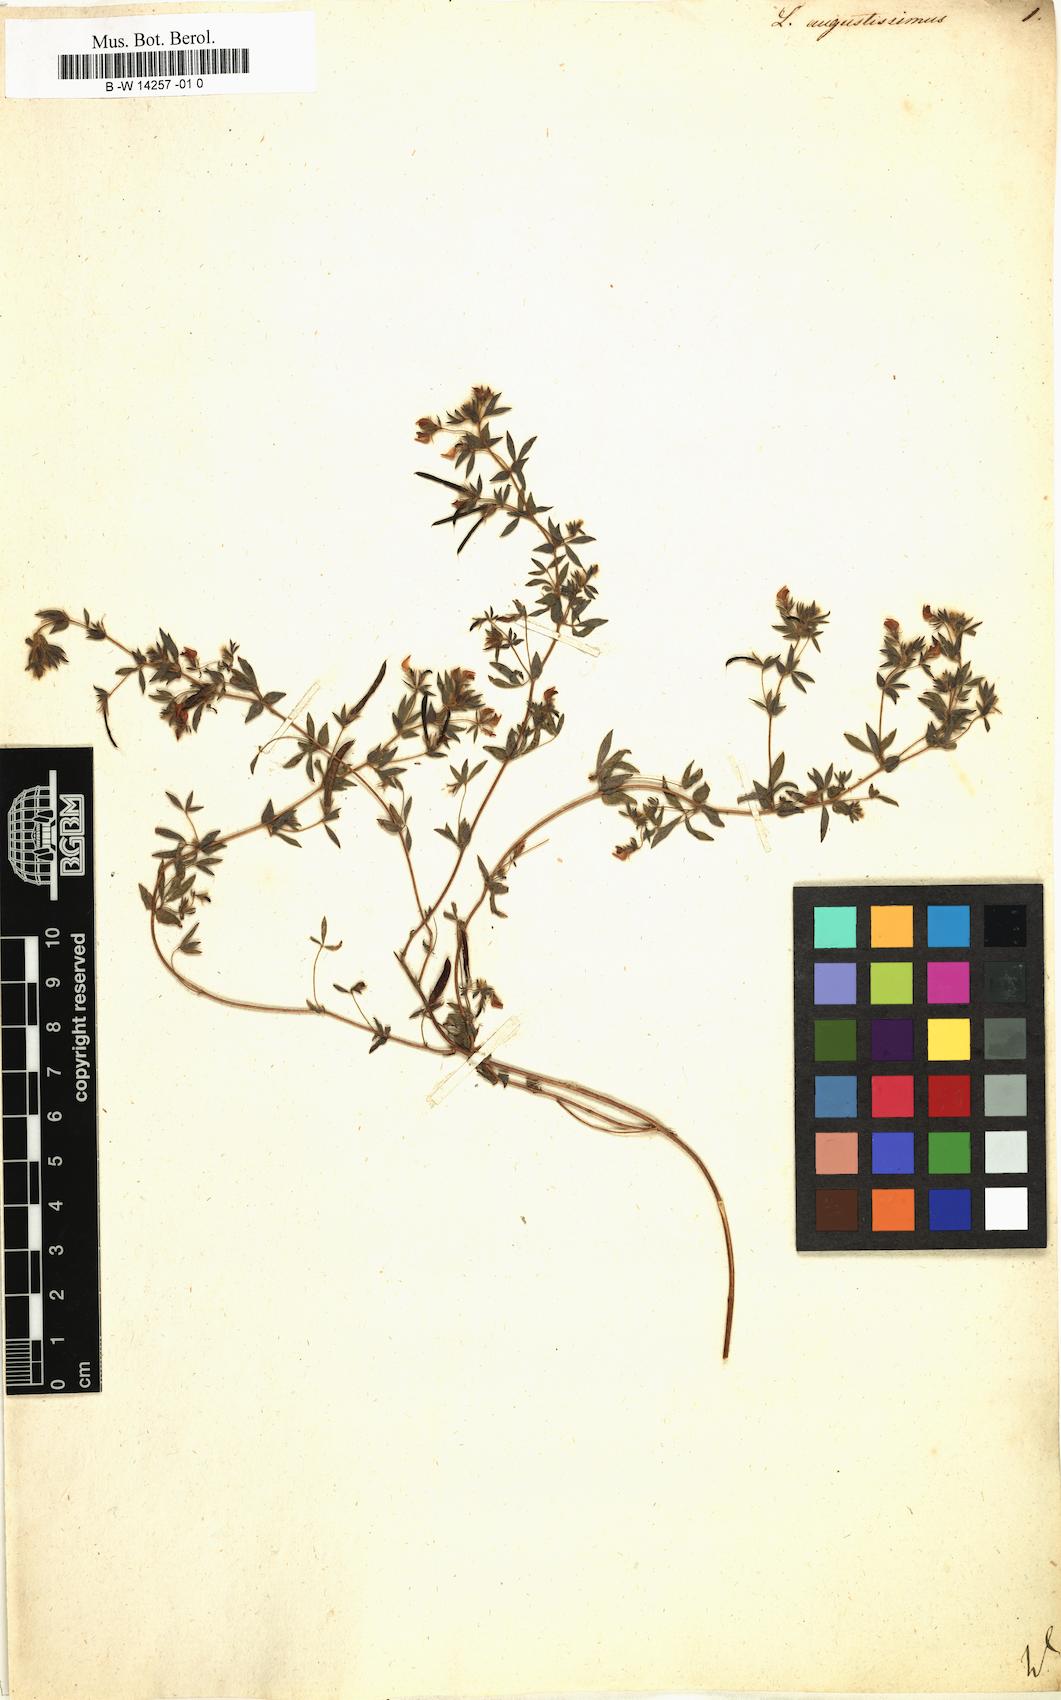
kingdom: Plantae
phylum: Tracheophyta
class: Magnoliopsida
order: Fabales
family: Fabaceae
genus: Lotus
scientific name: Lotus angustissimus
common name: Slender bird's-foot trefoil
